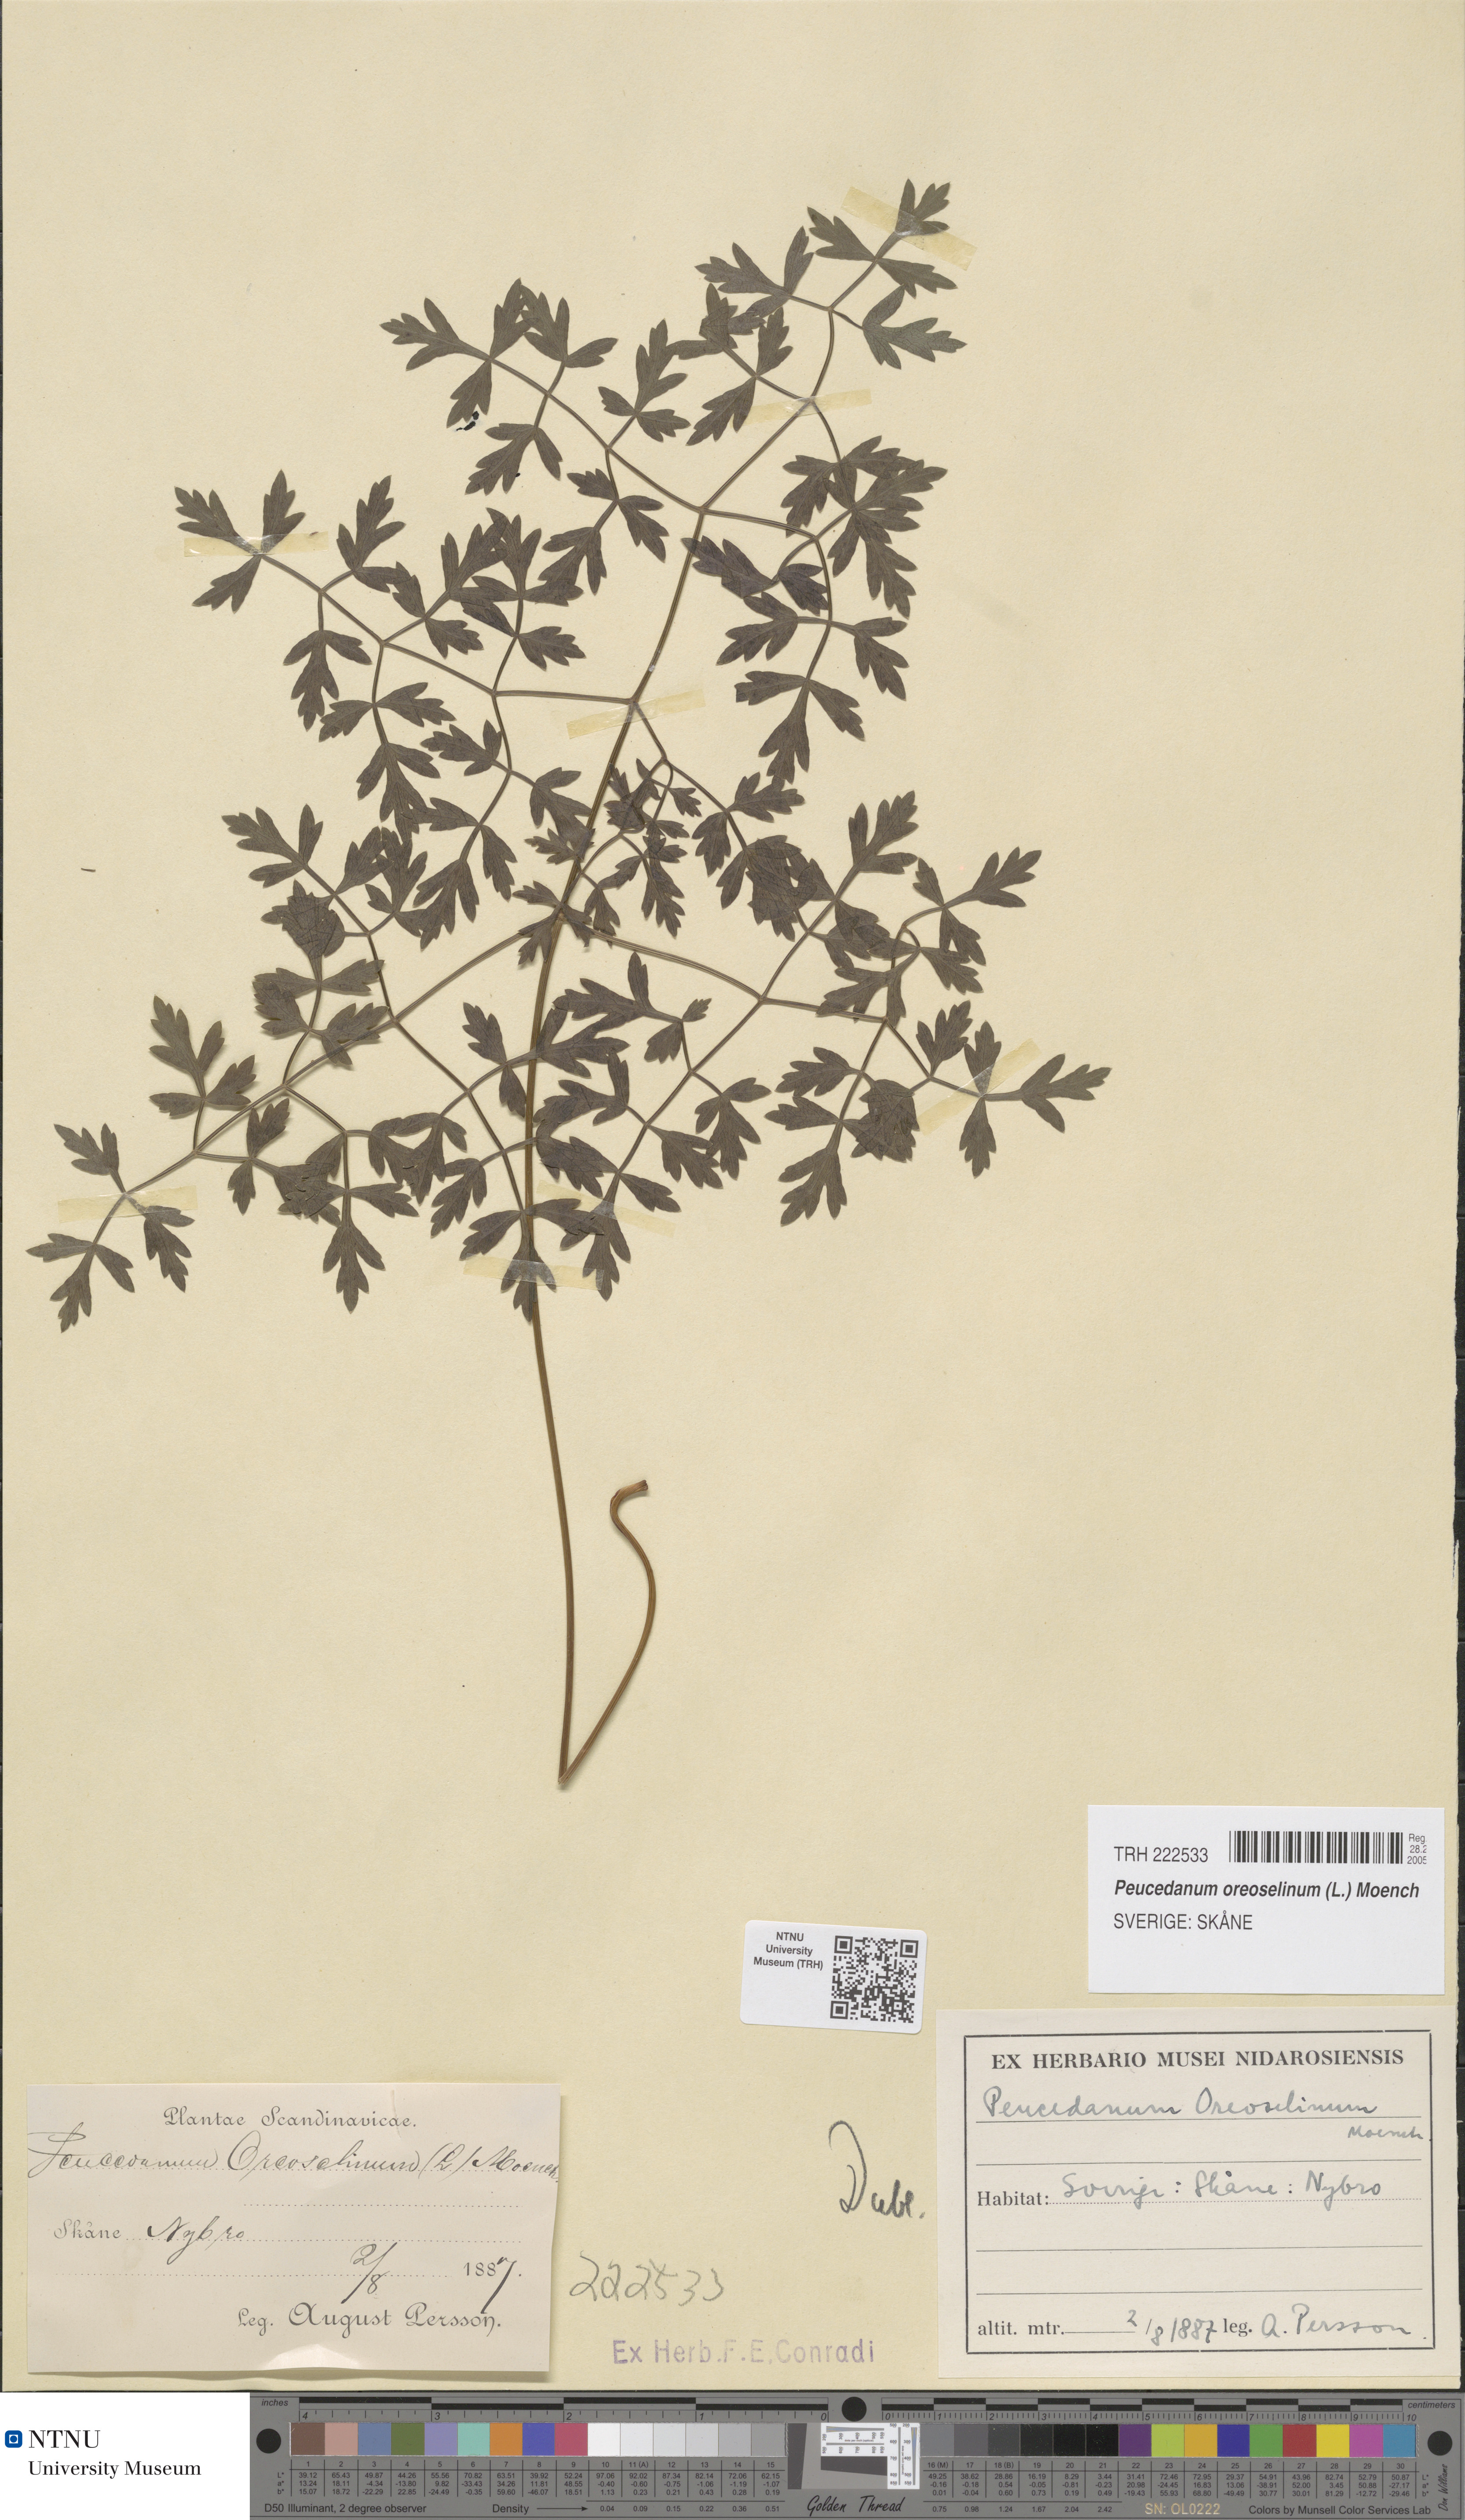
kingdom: Plantae
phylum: Tracheophyta
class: Magnoliopsida
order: Apiales
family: Apiaceae
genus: Oreoselinum
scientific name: Oreoselinum nigrum
